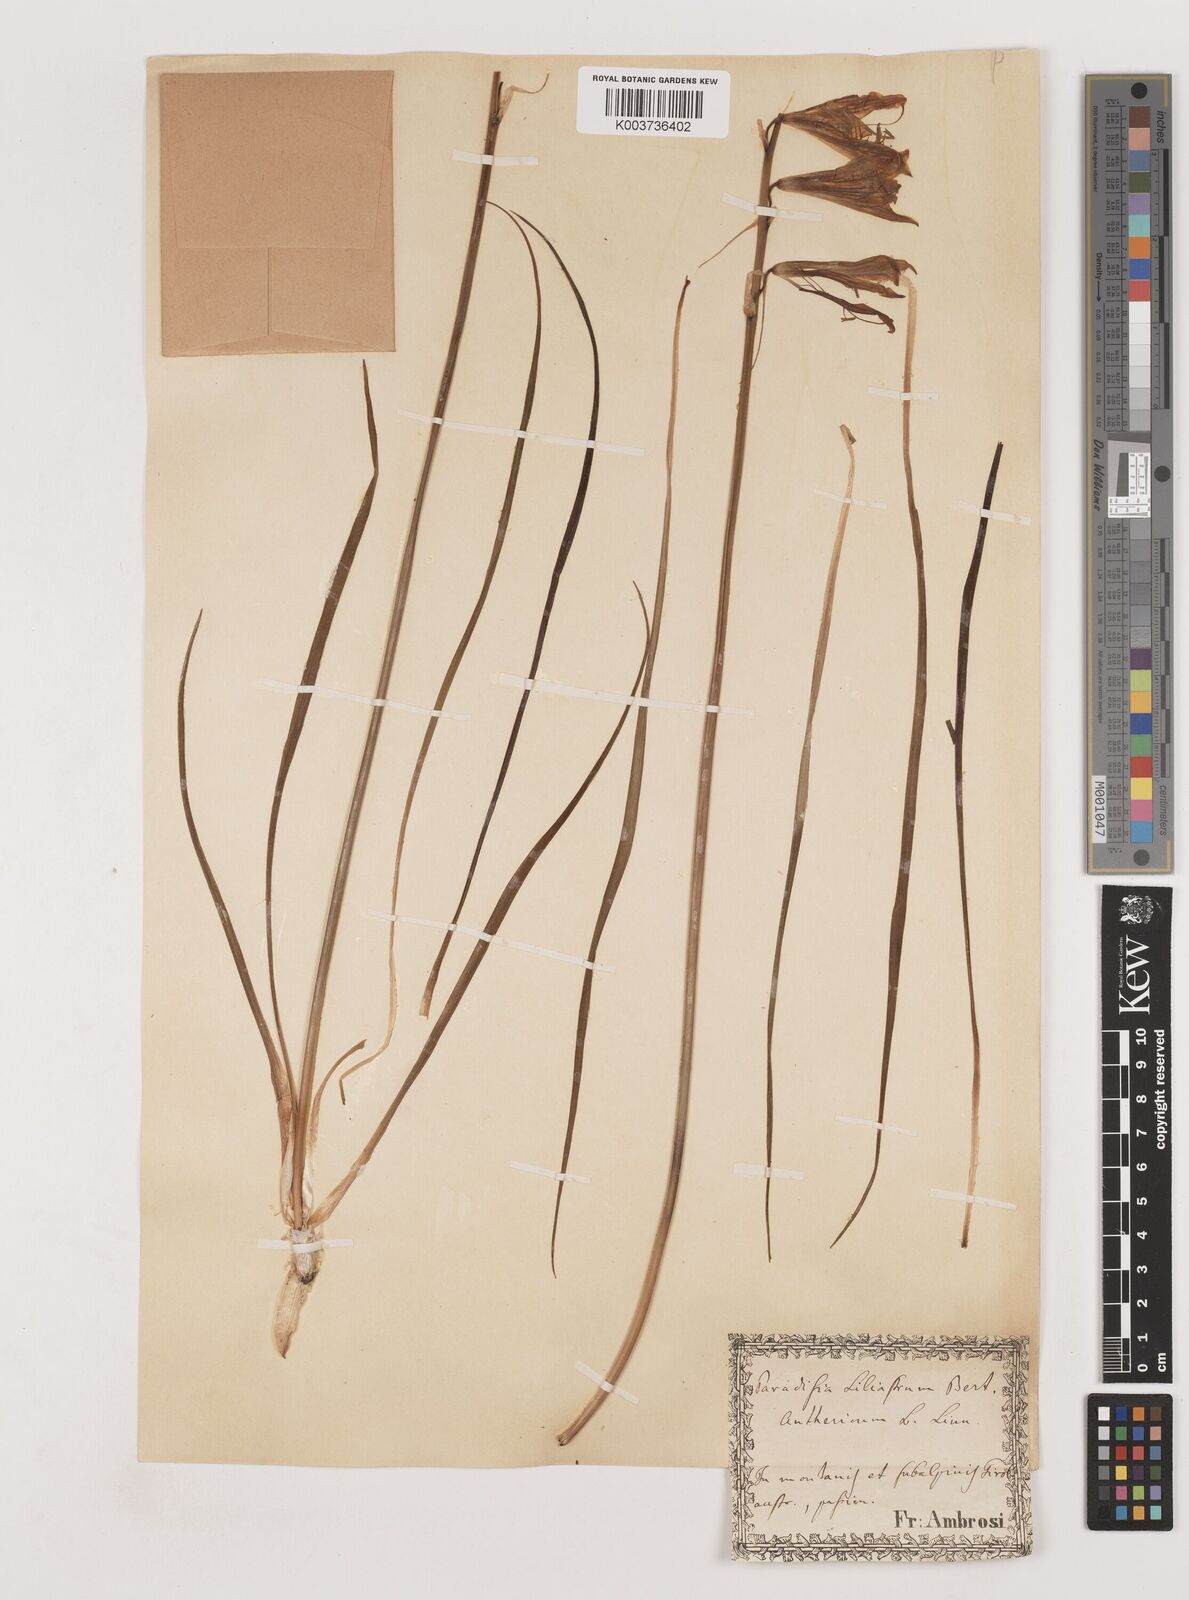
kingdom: Plantae
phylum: Tracheophyta
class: Liliopsida
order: Asparagales
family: Asparagaceae
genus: Paradisea
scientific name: Paradisea liliastrum
